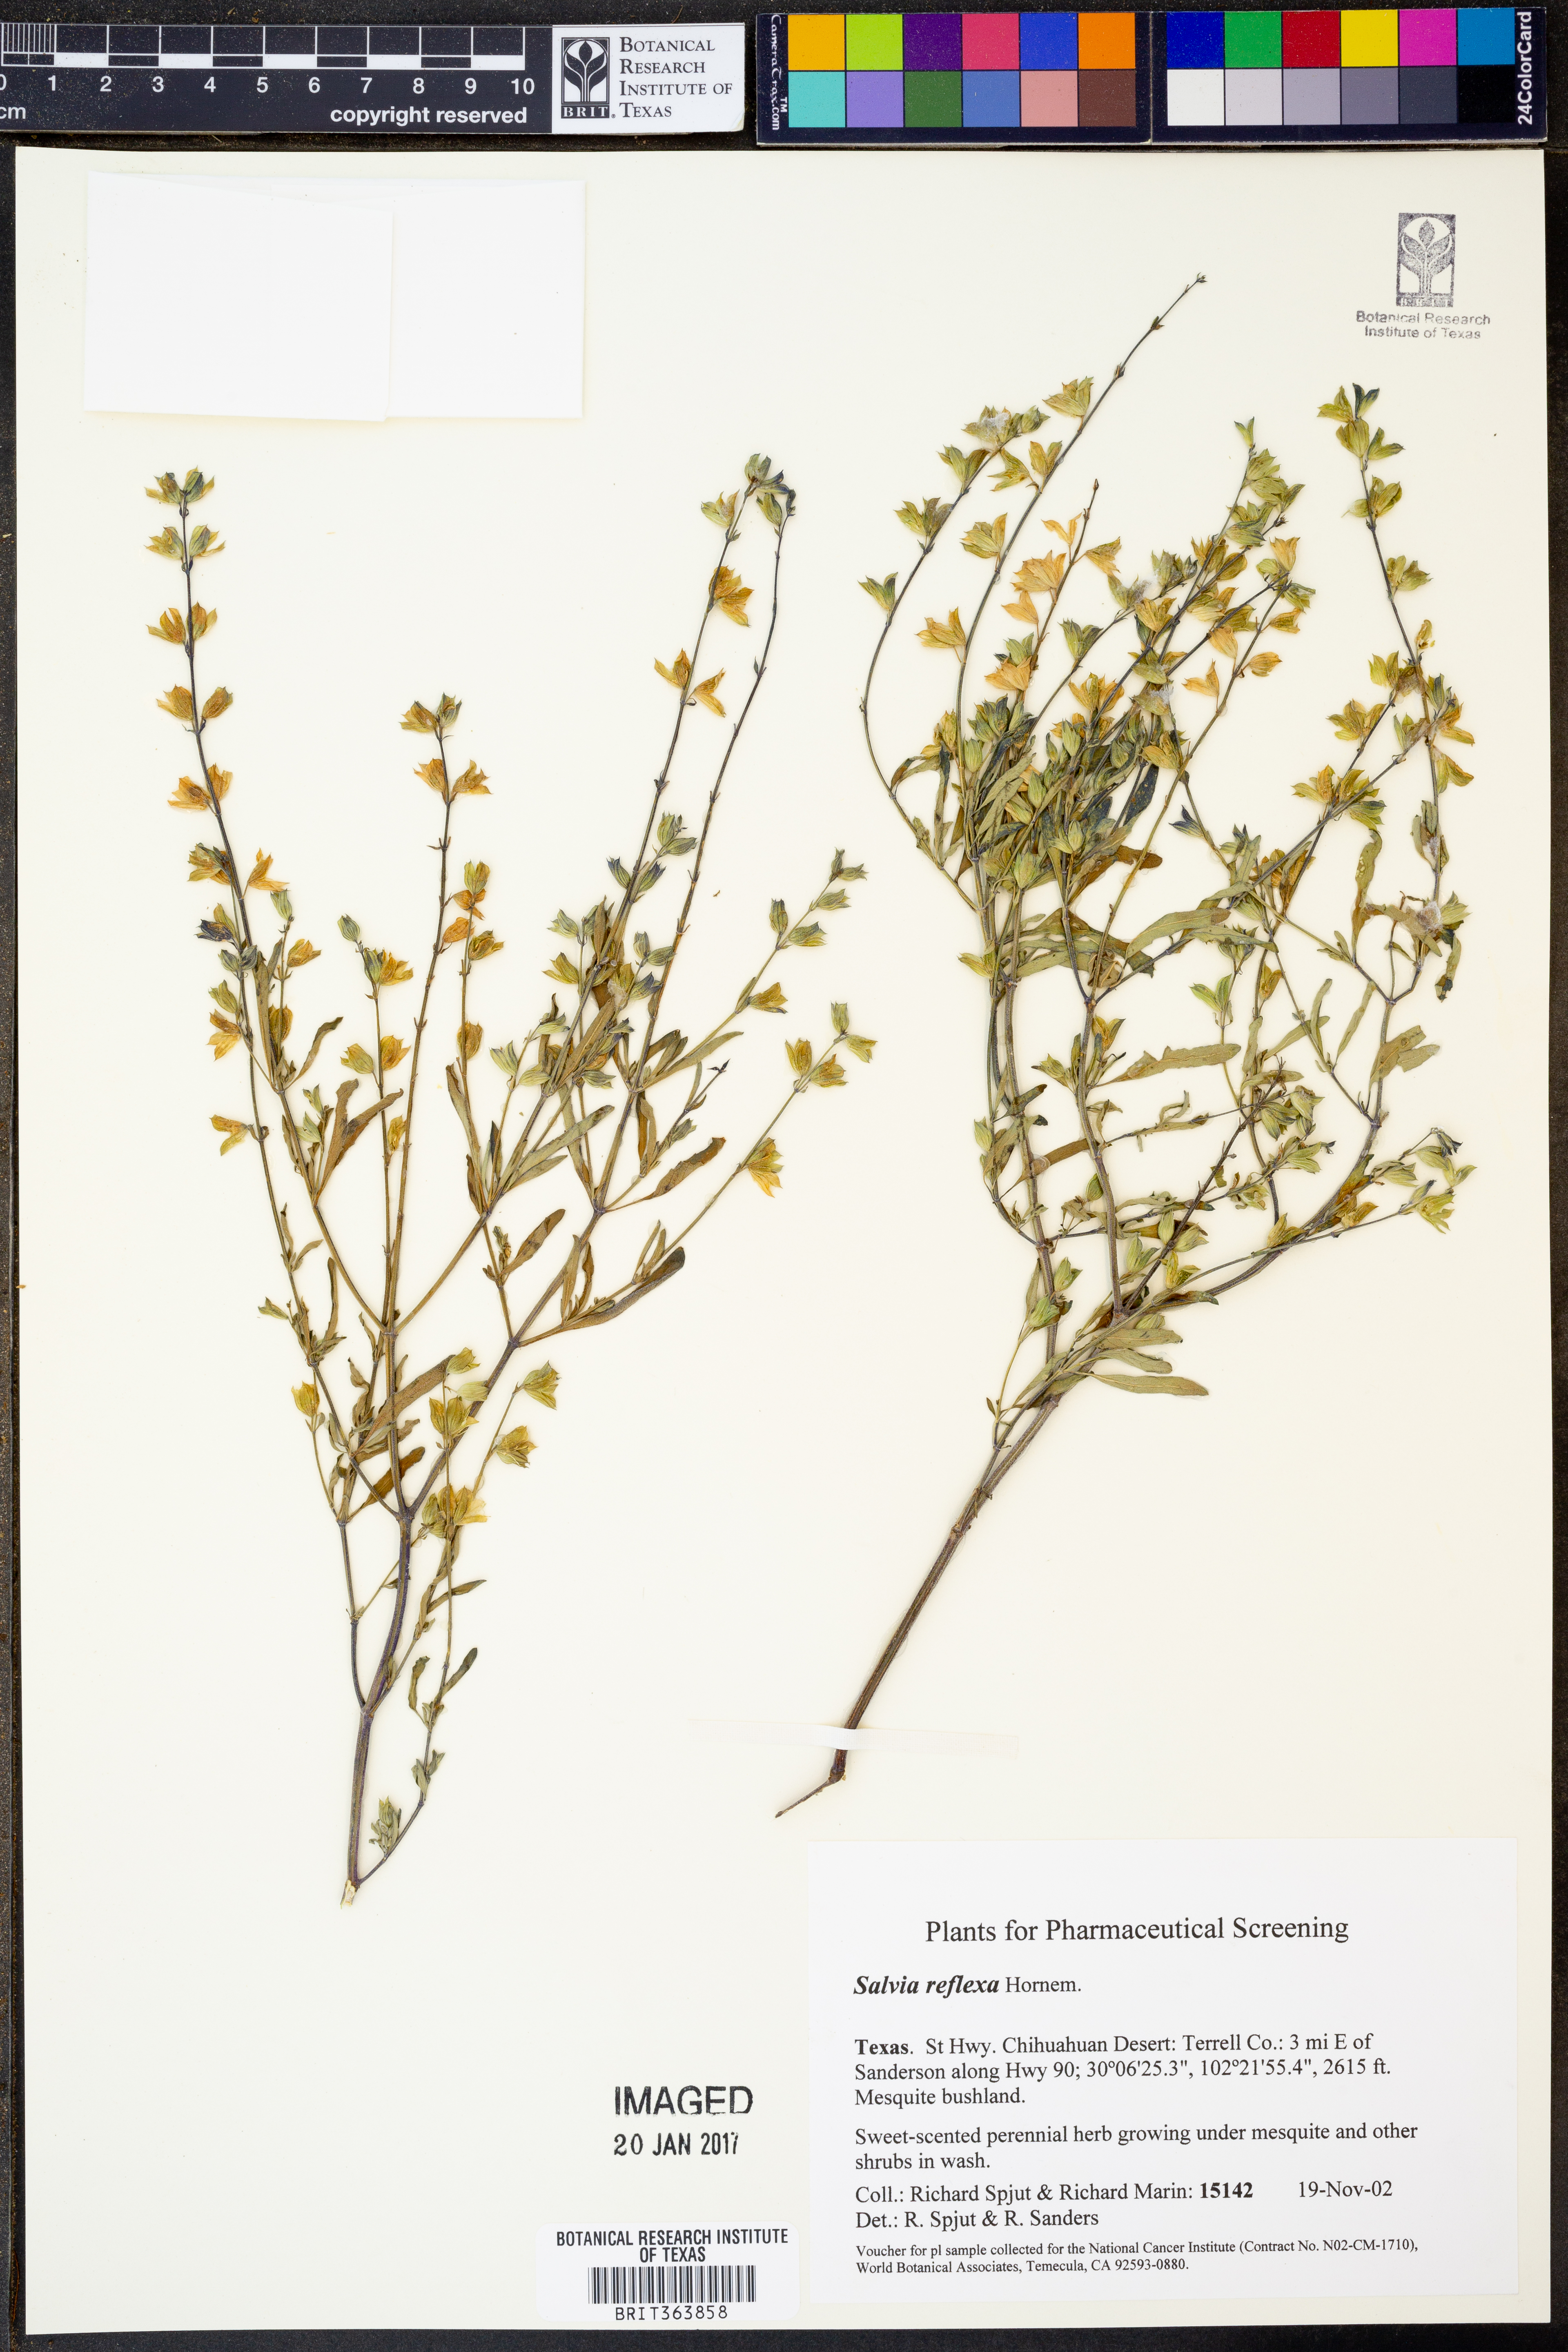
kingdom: Plantae
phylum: Tracheophyta
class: Magnoliopsida
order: Lamiales
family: Lamiaceae
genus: Salvia
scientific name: Salvia reflexa
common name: Mintweed
